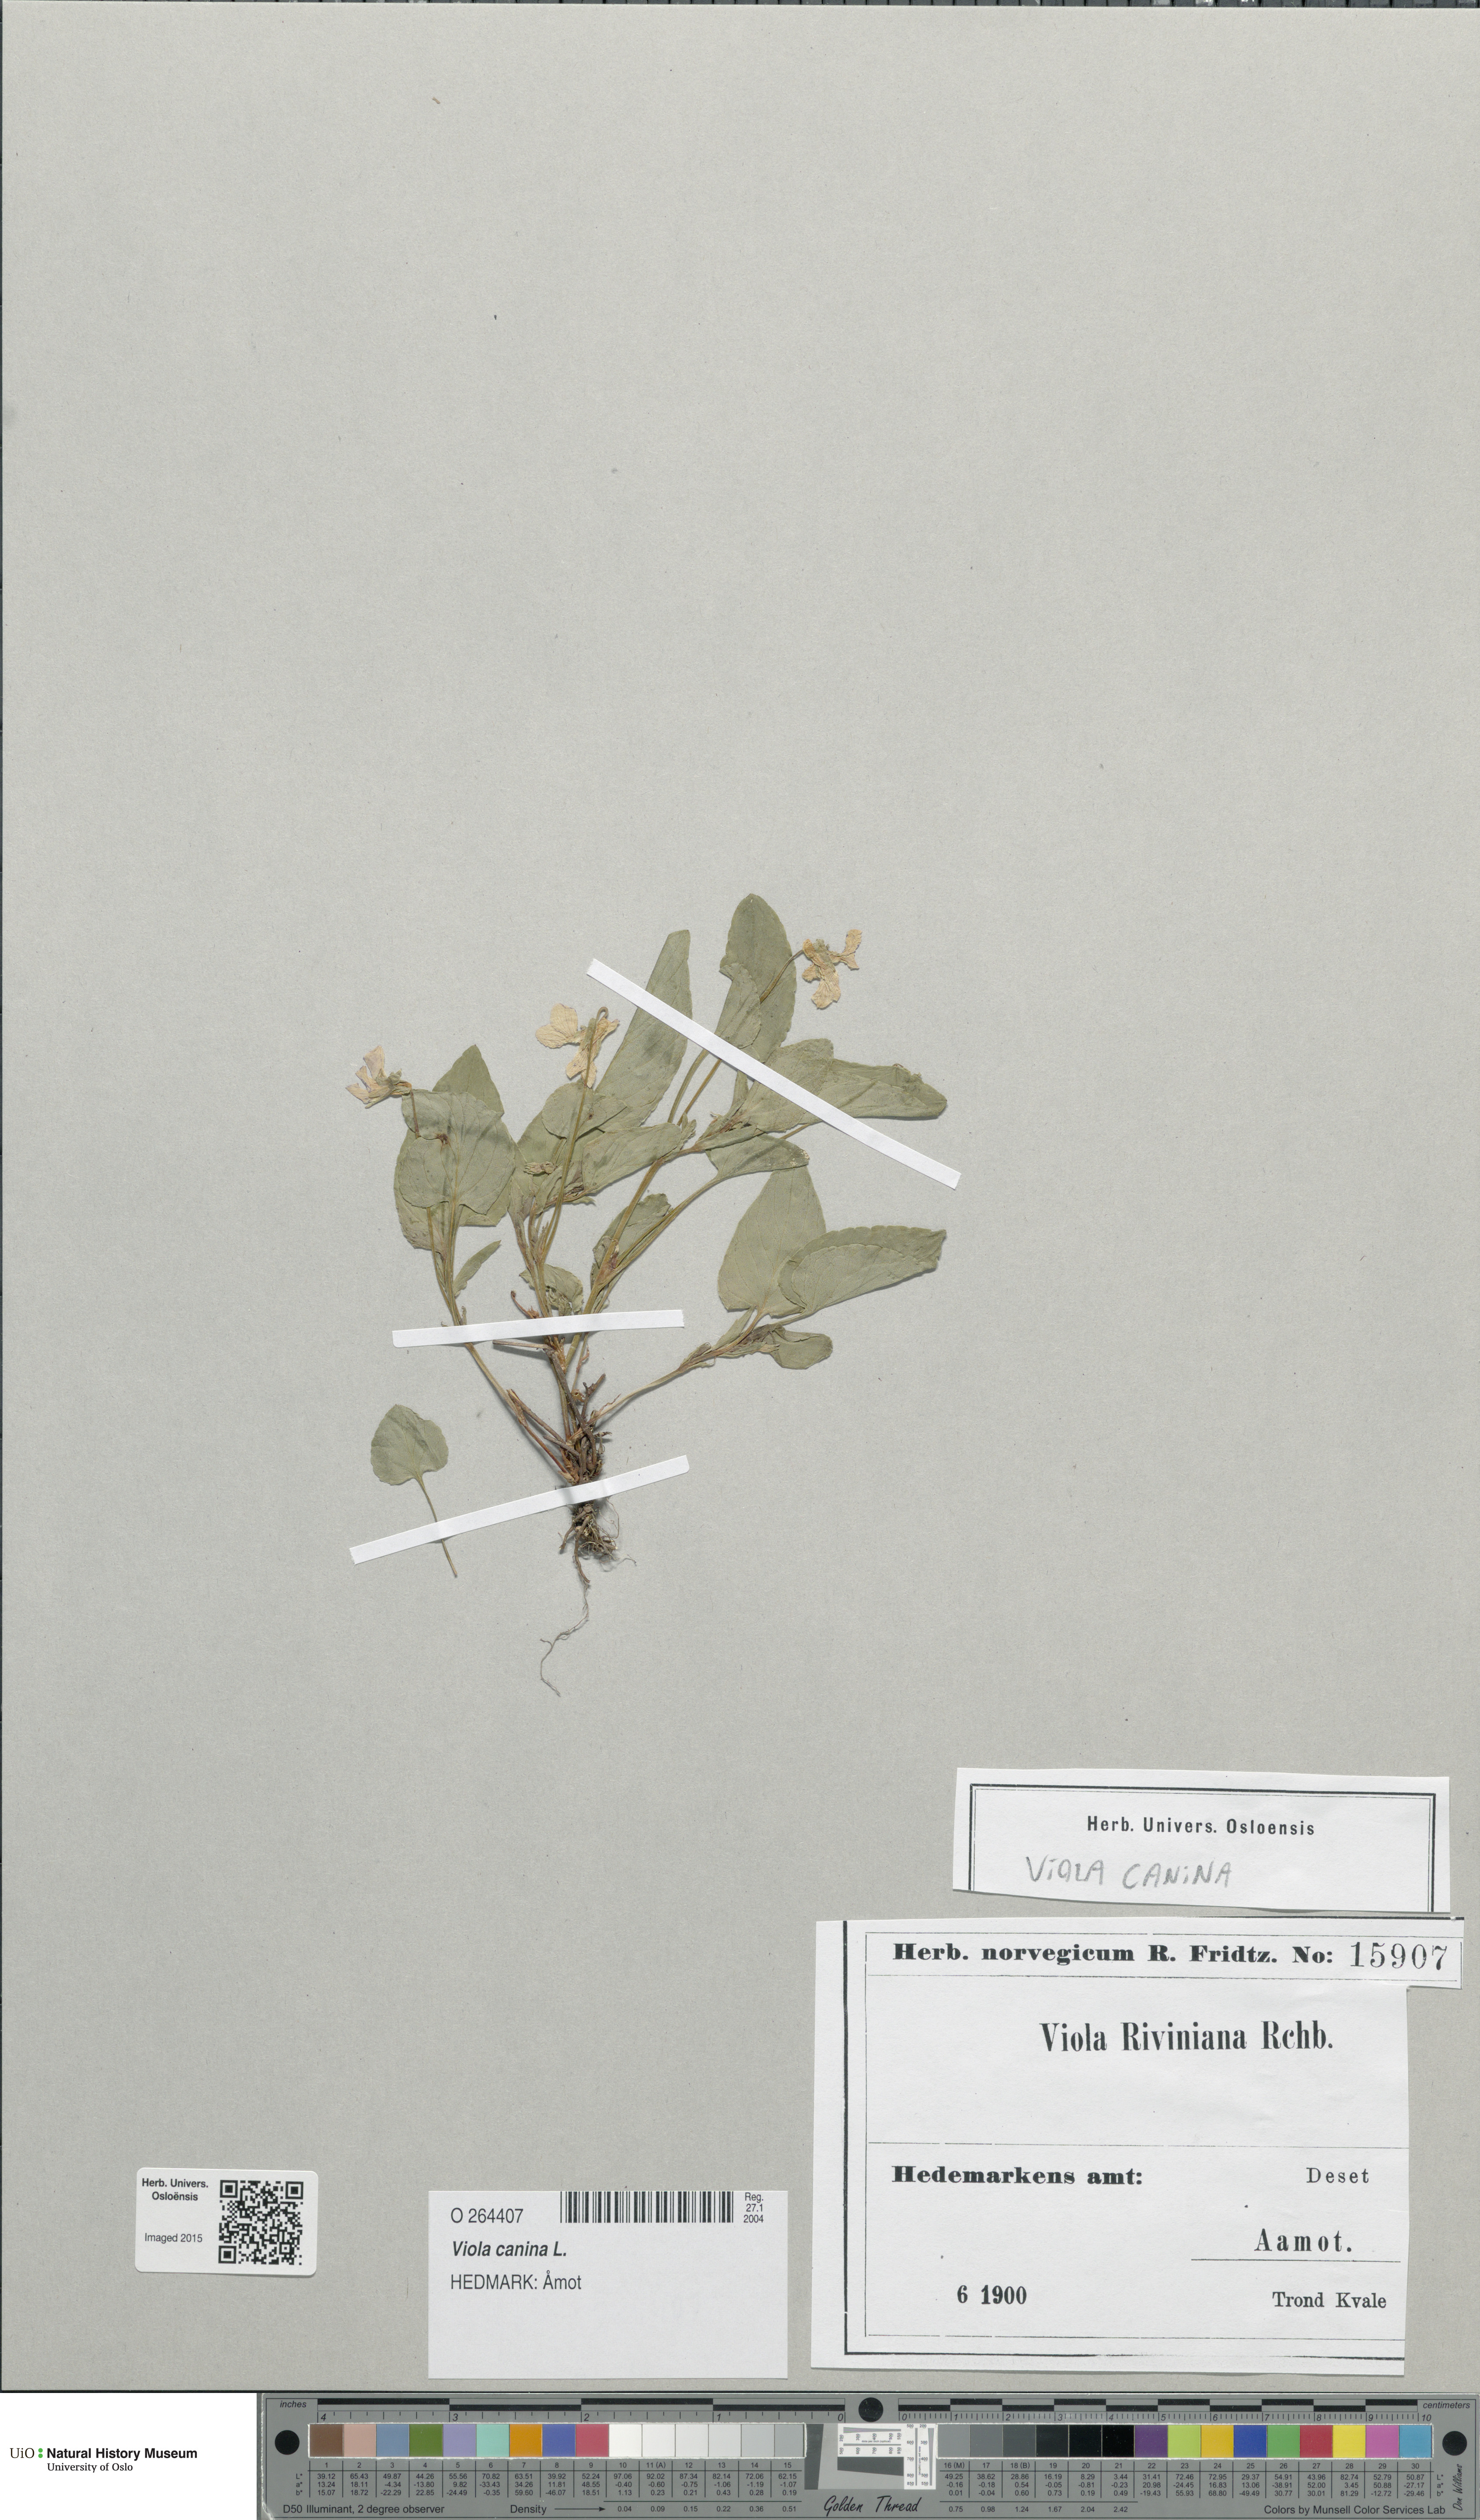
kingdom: Plantae
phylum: Tracheophyta
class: Magnoliopsida
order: Malpighiales
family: Violaceae
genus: Viola
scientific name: Viola canina
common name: Heath dog-violet
